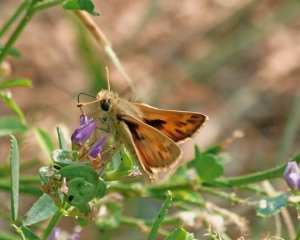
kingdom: Animalia
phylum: Arthropoda
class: Insecta
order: Lepidoptera
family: Hesperiidae
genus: Ochlodes
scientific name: Ochlodes sylvanoides
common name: Woodland Skipper
